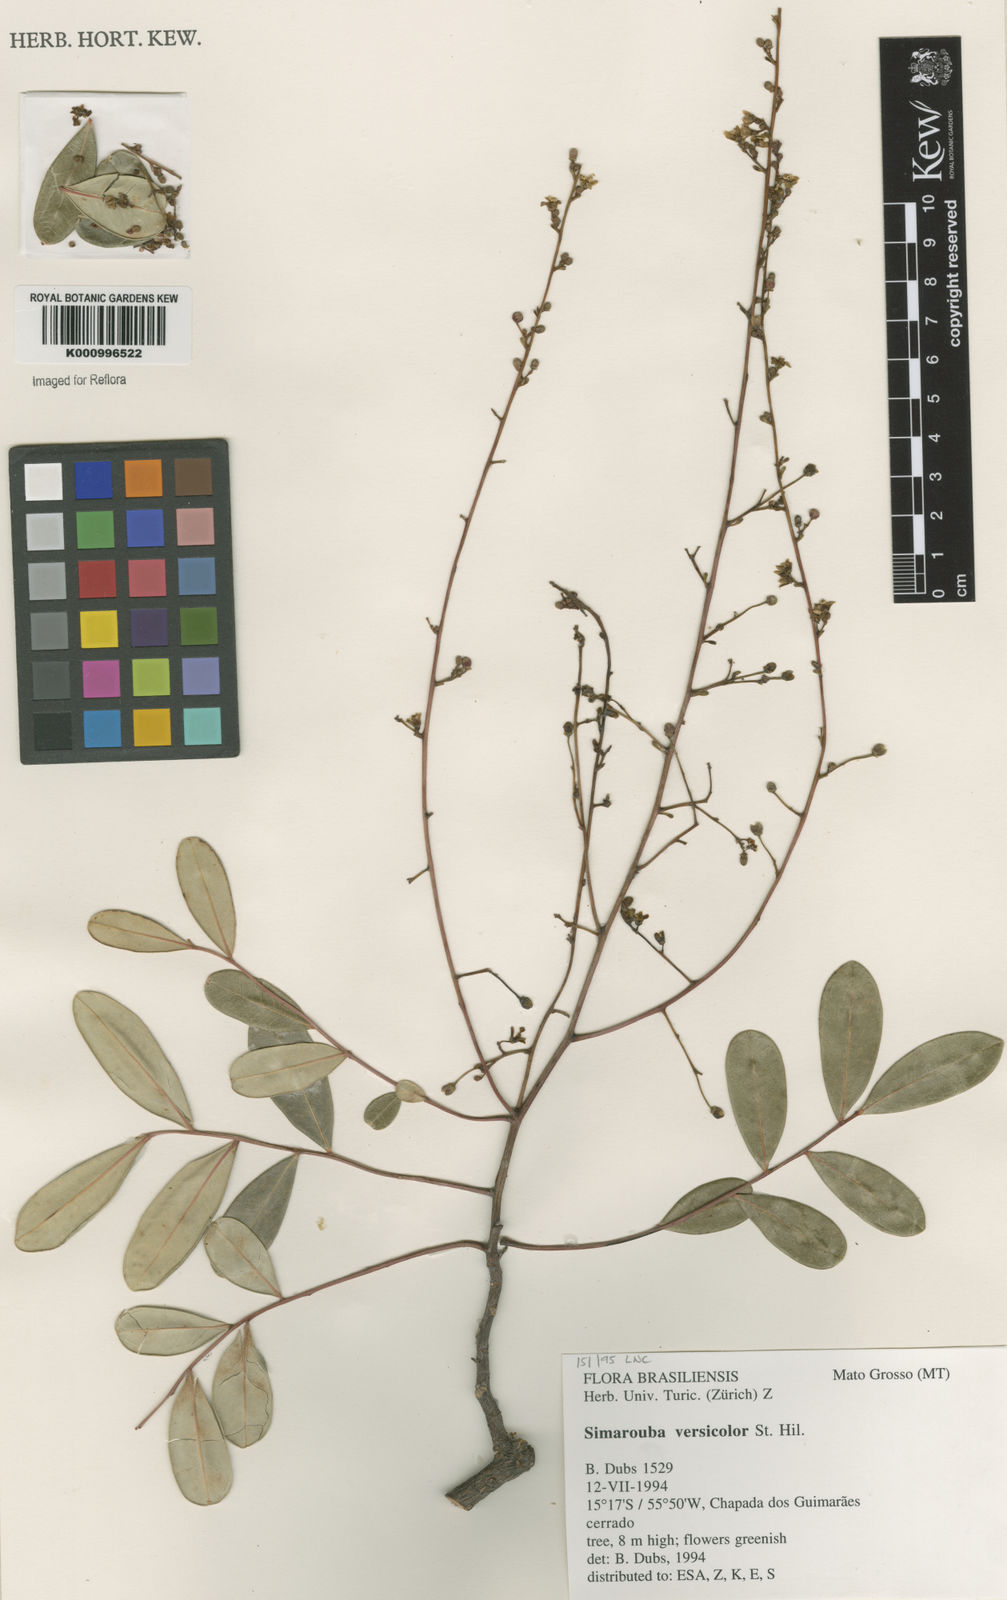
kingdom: Plantae
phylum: Tracheophyta
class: Magnoliopsida
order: Sapindales
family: Simaroubaceae
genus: Simarouba
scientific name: Simarouba versicolor
